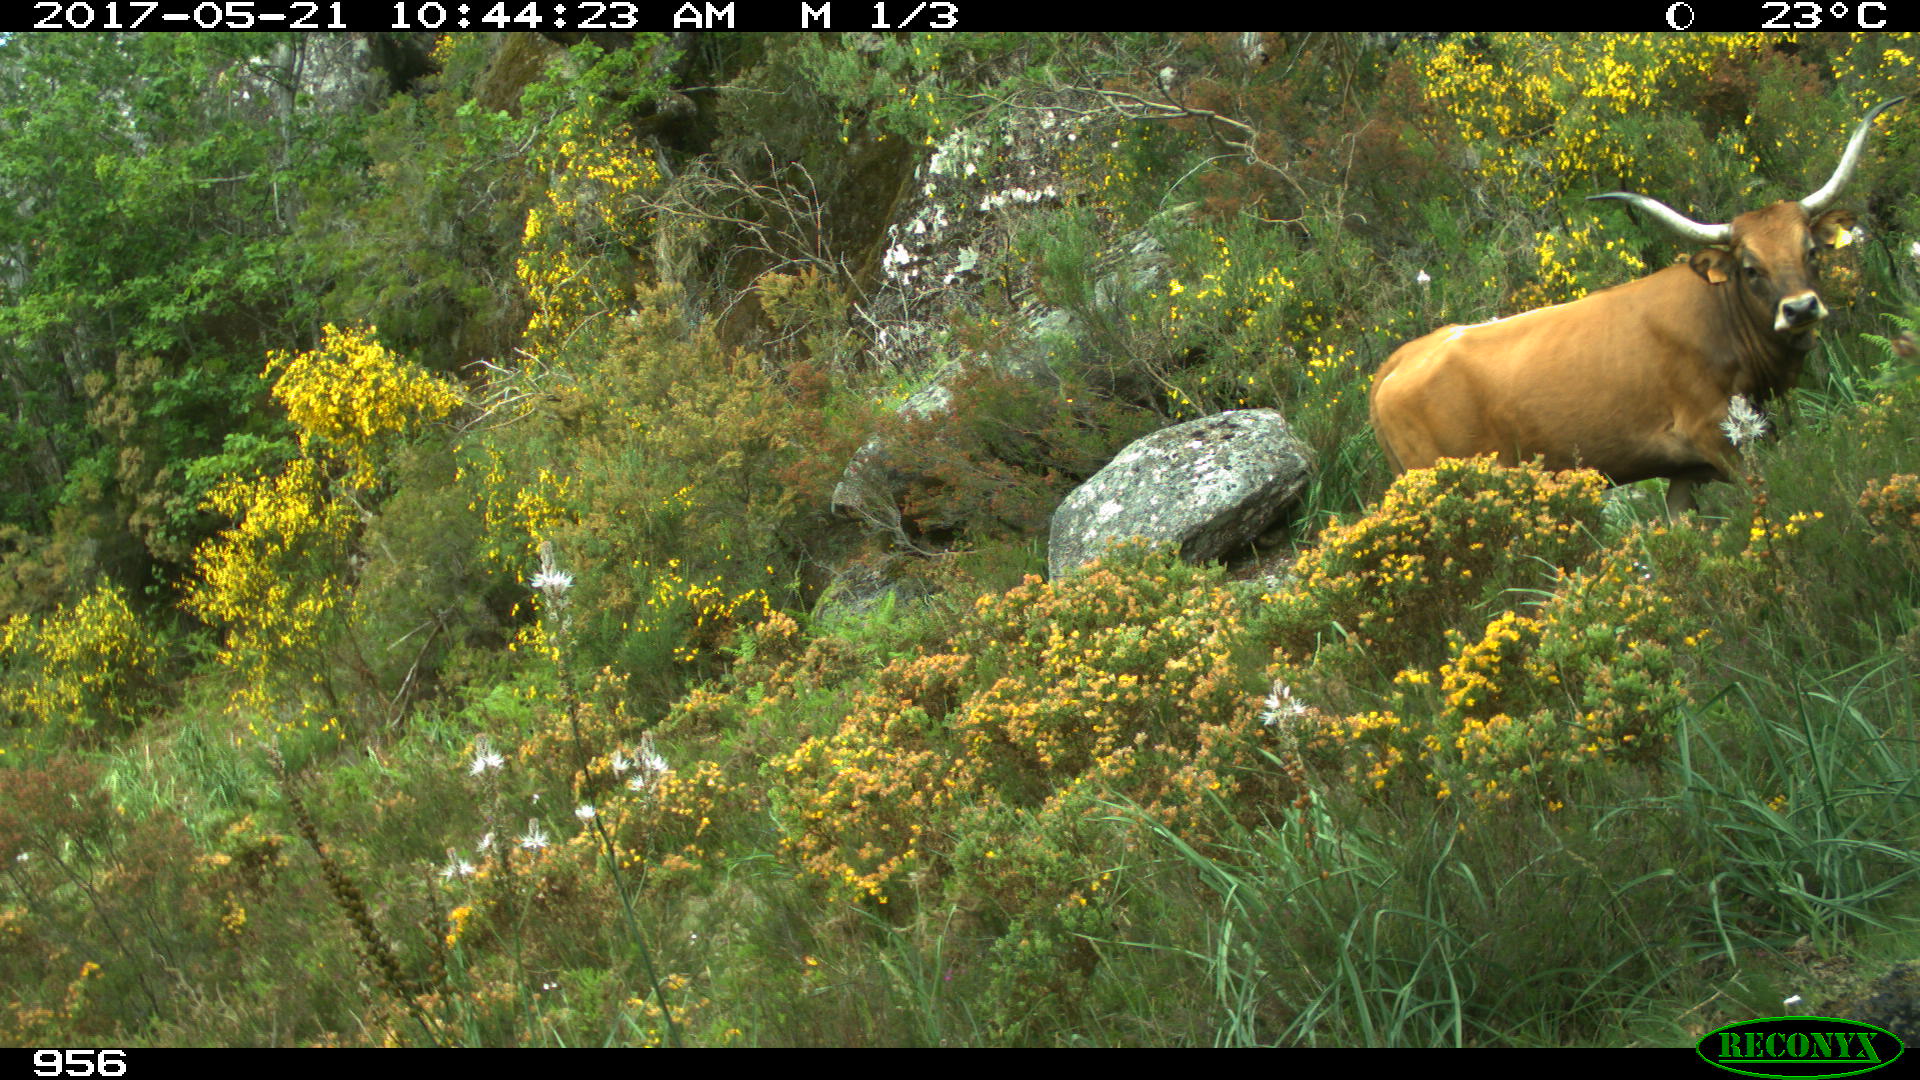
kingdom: Animalia
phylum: Chordata
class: Mammalia
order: Artiodactyla
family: Bovidae
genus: Bos
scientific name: Bos taurus
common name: Domesticated cattle
